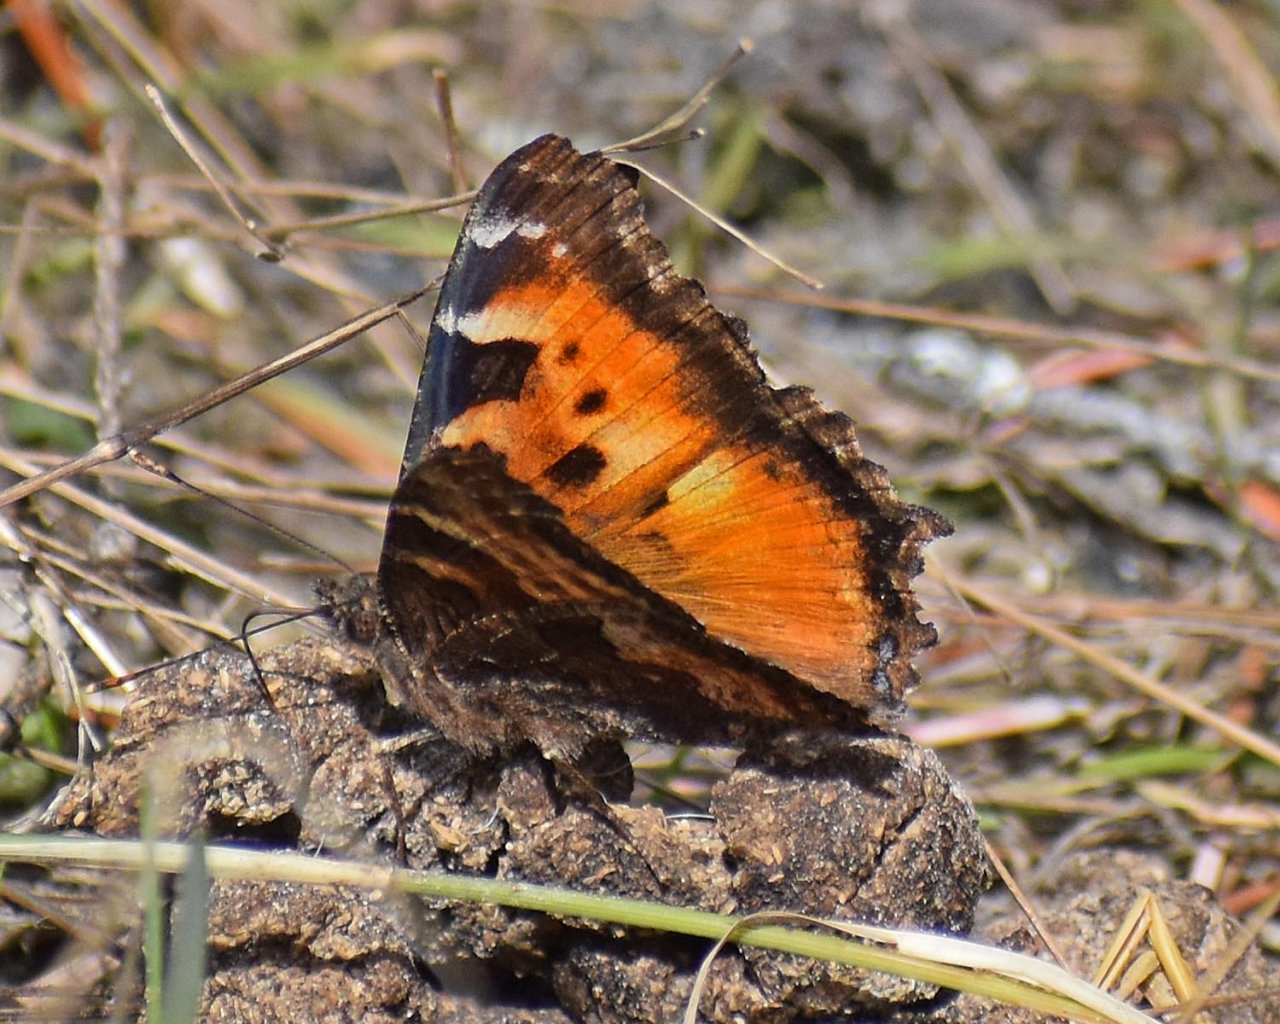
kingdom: Animalia
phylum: Arthropoda
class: Insecta
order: Lepidoptera
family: Nymphalidae
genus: Nymphalis
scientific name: Nymphalis californica
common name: California Tortoiseshell
